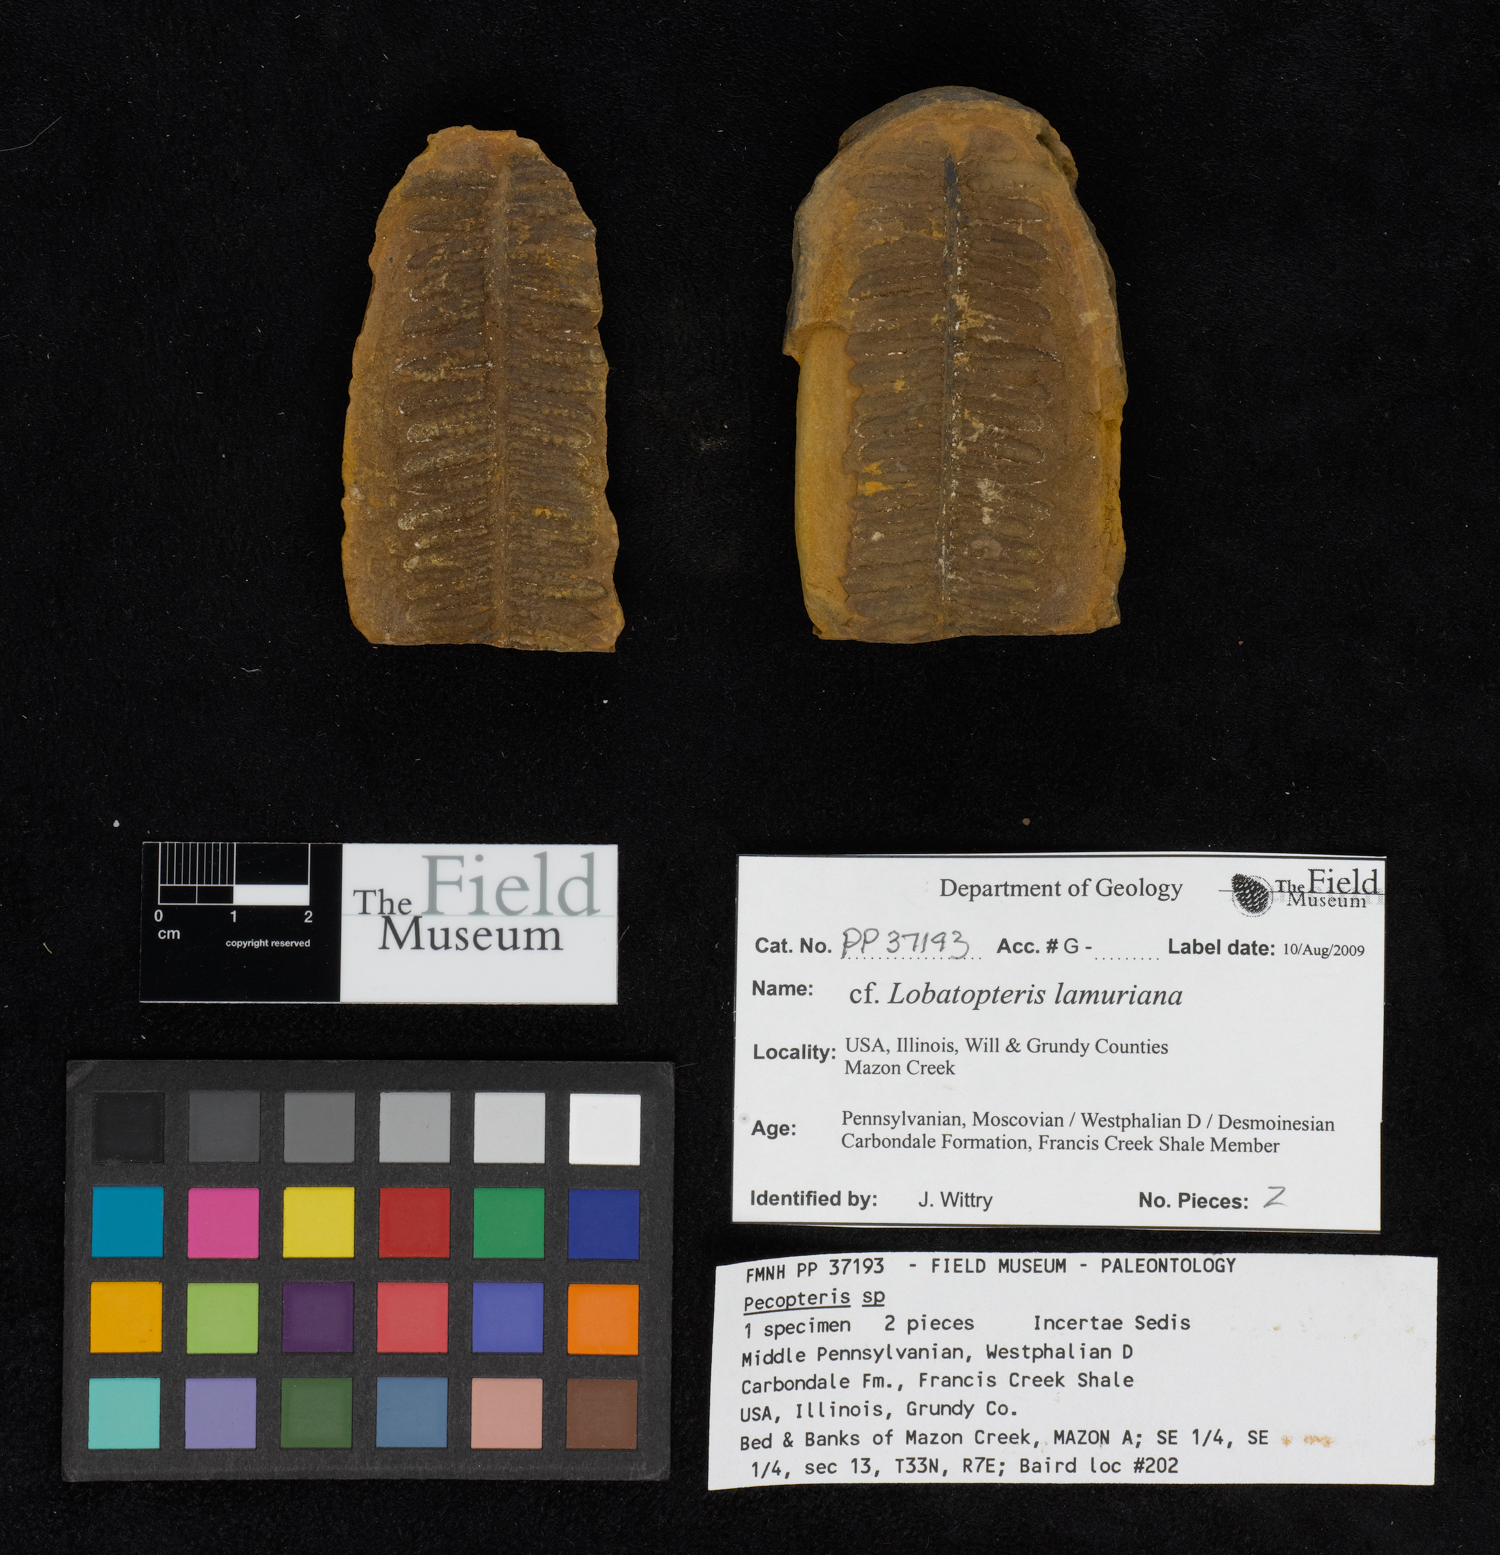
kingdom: Plantae
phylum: Tracheophyta
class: Polypodiopsida
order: Marattiales
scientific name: Marattiales
